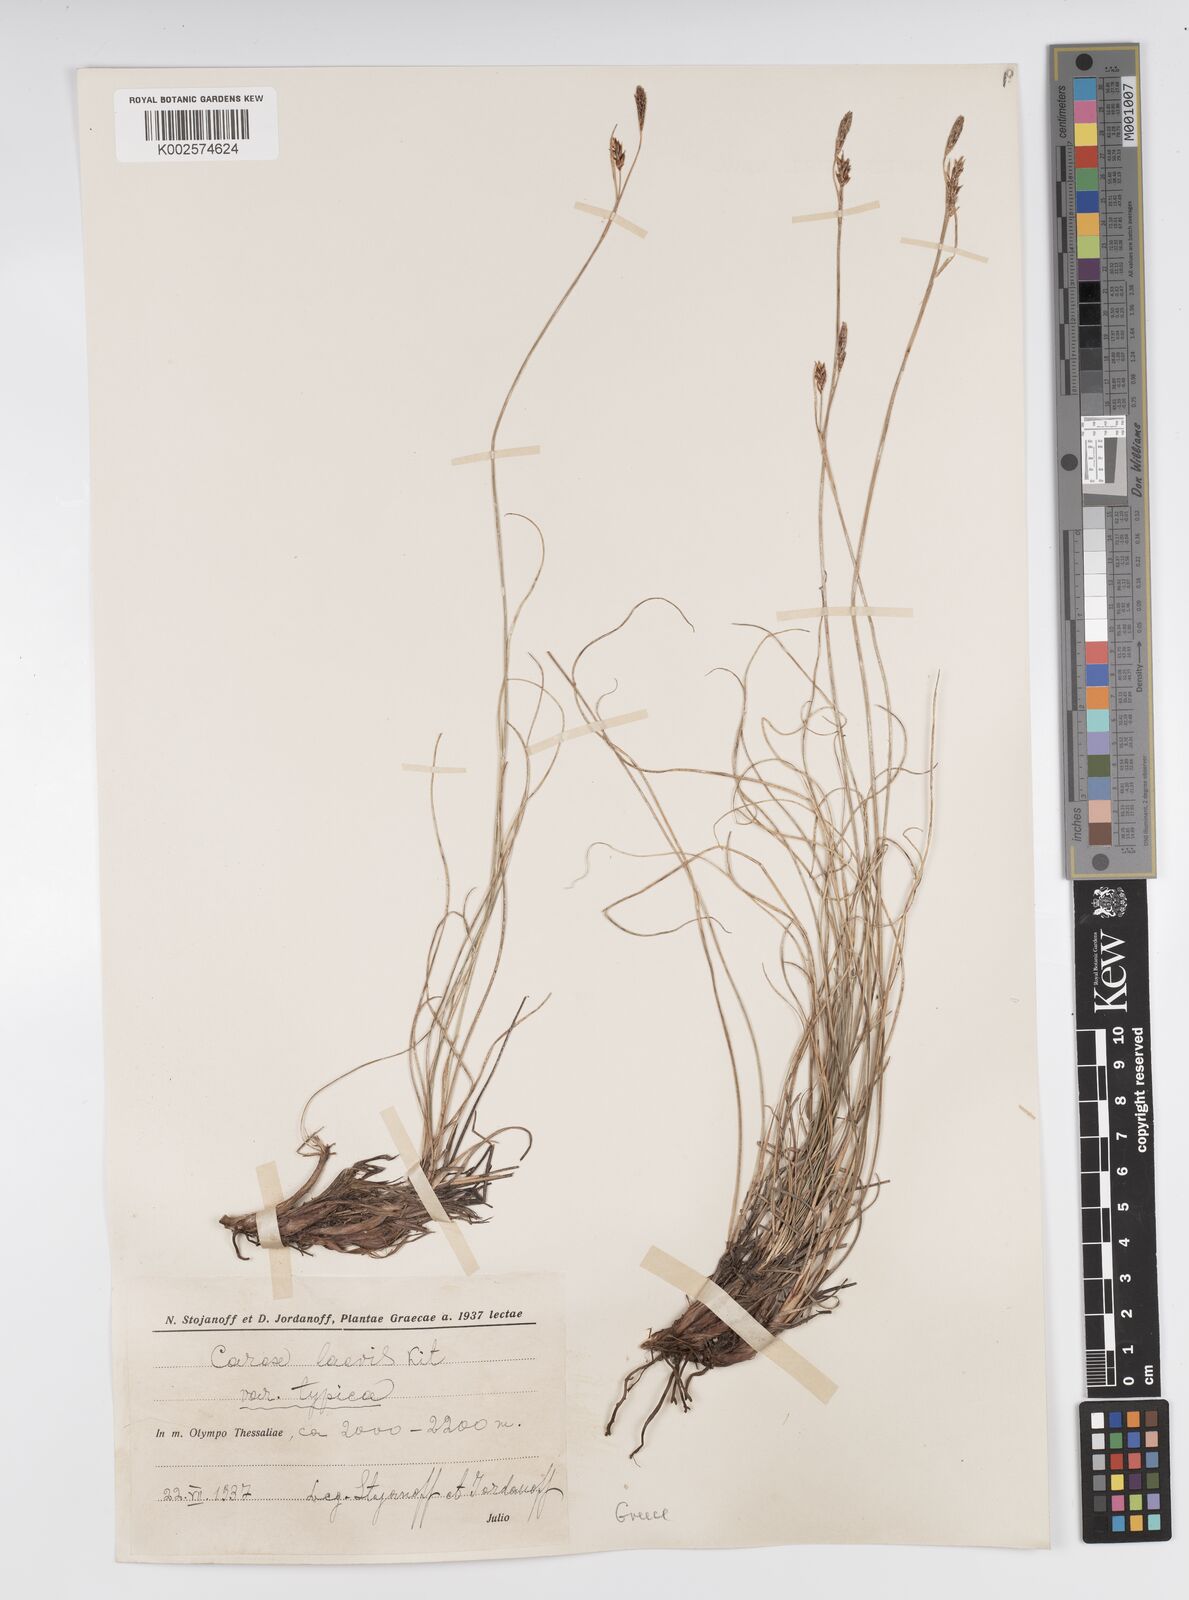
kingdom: Plantae
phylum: Tracheophyta
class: Liliopsida
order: Poales
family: Cyperaceae
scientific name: Cyperaceae
